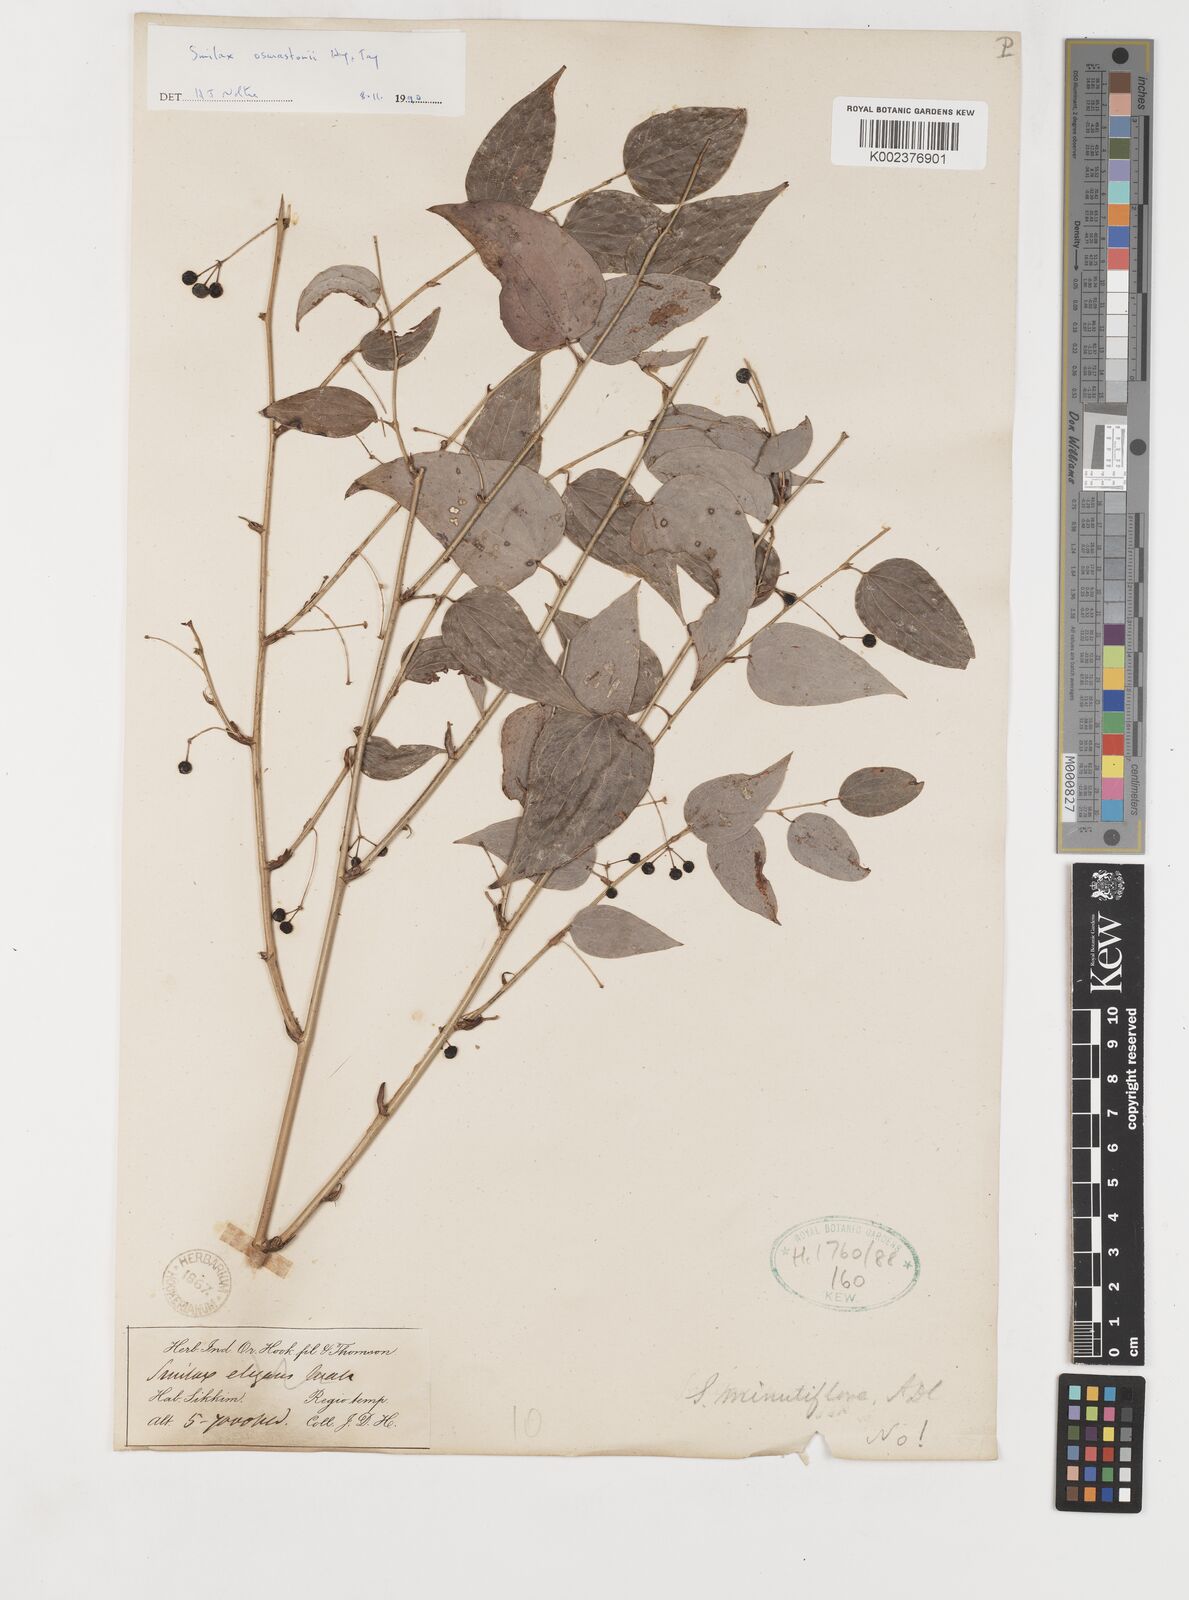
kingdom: Plantae
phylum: Tracheophyta
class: Liliopsida
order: Liliales
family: Smilacaceae
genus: Smilax
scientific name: Smilax elegans
